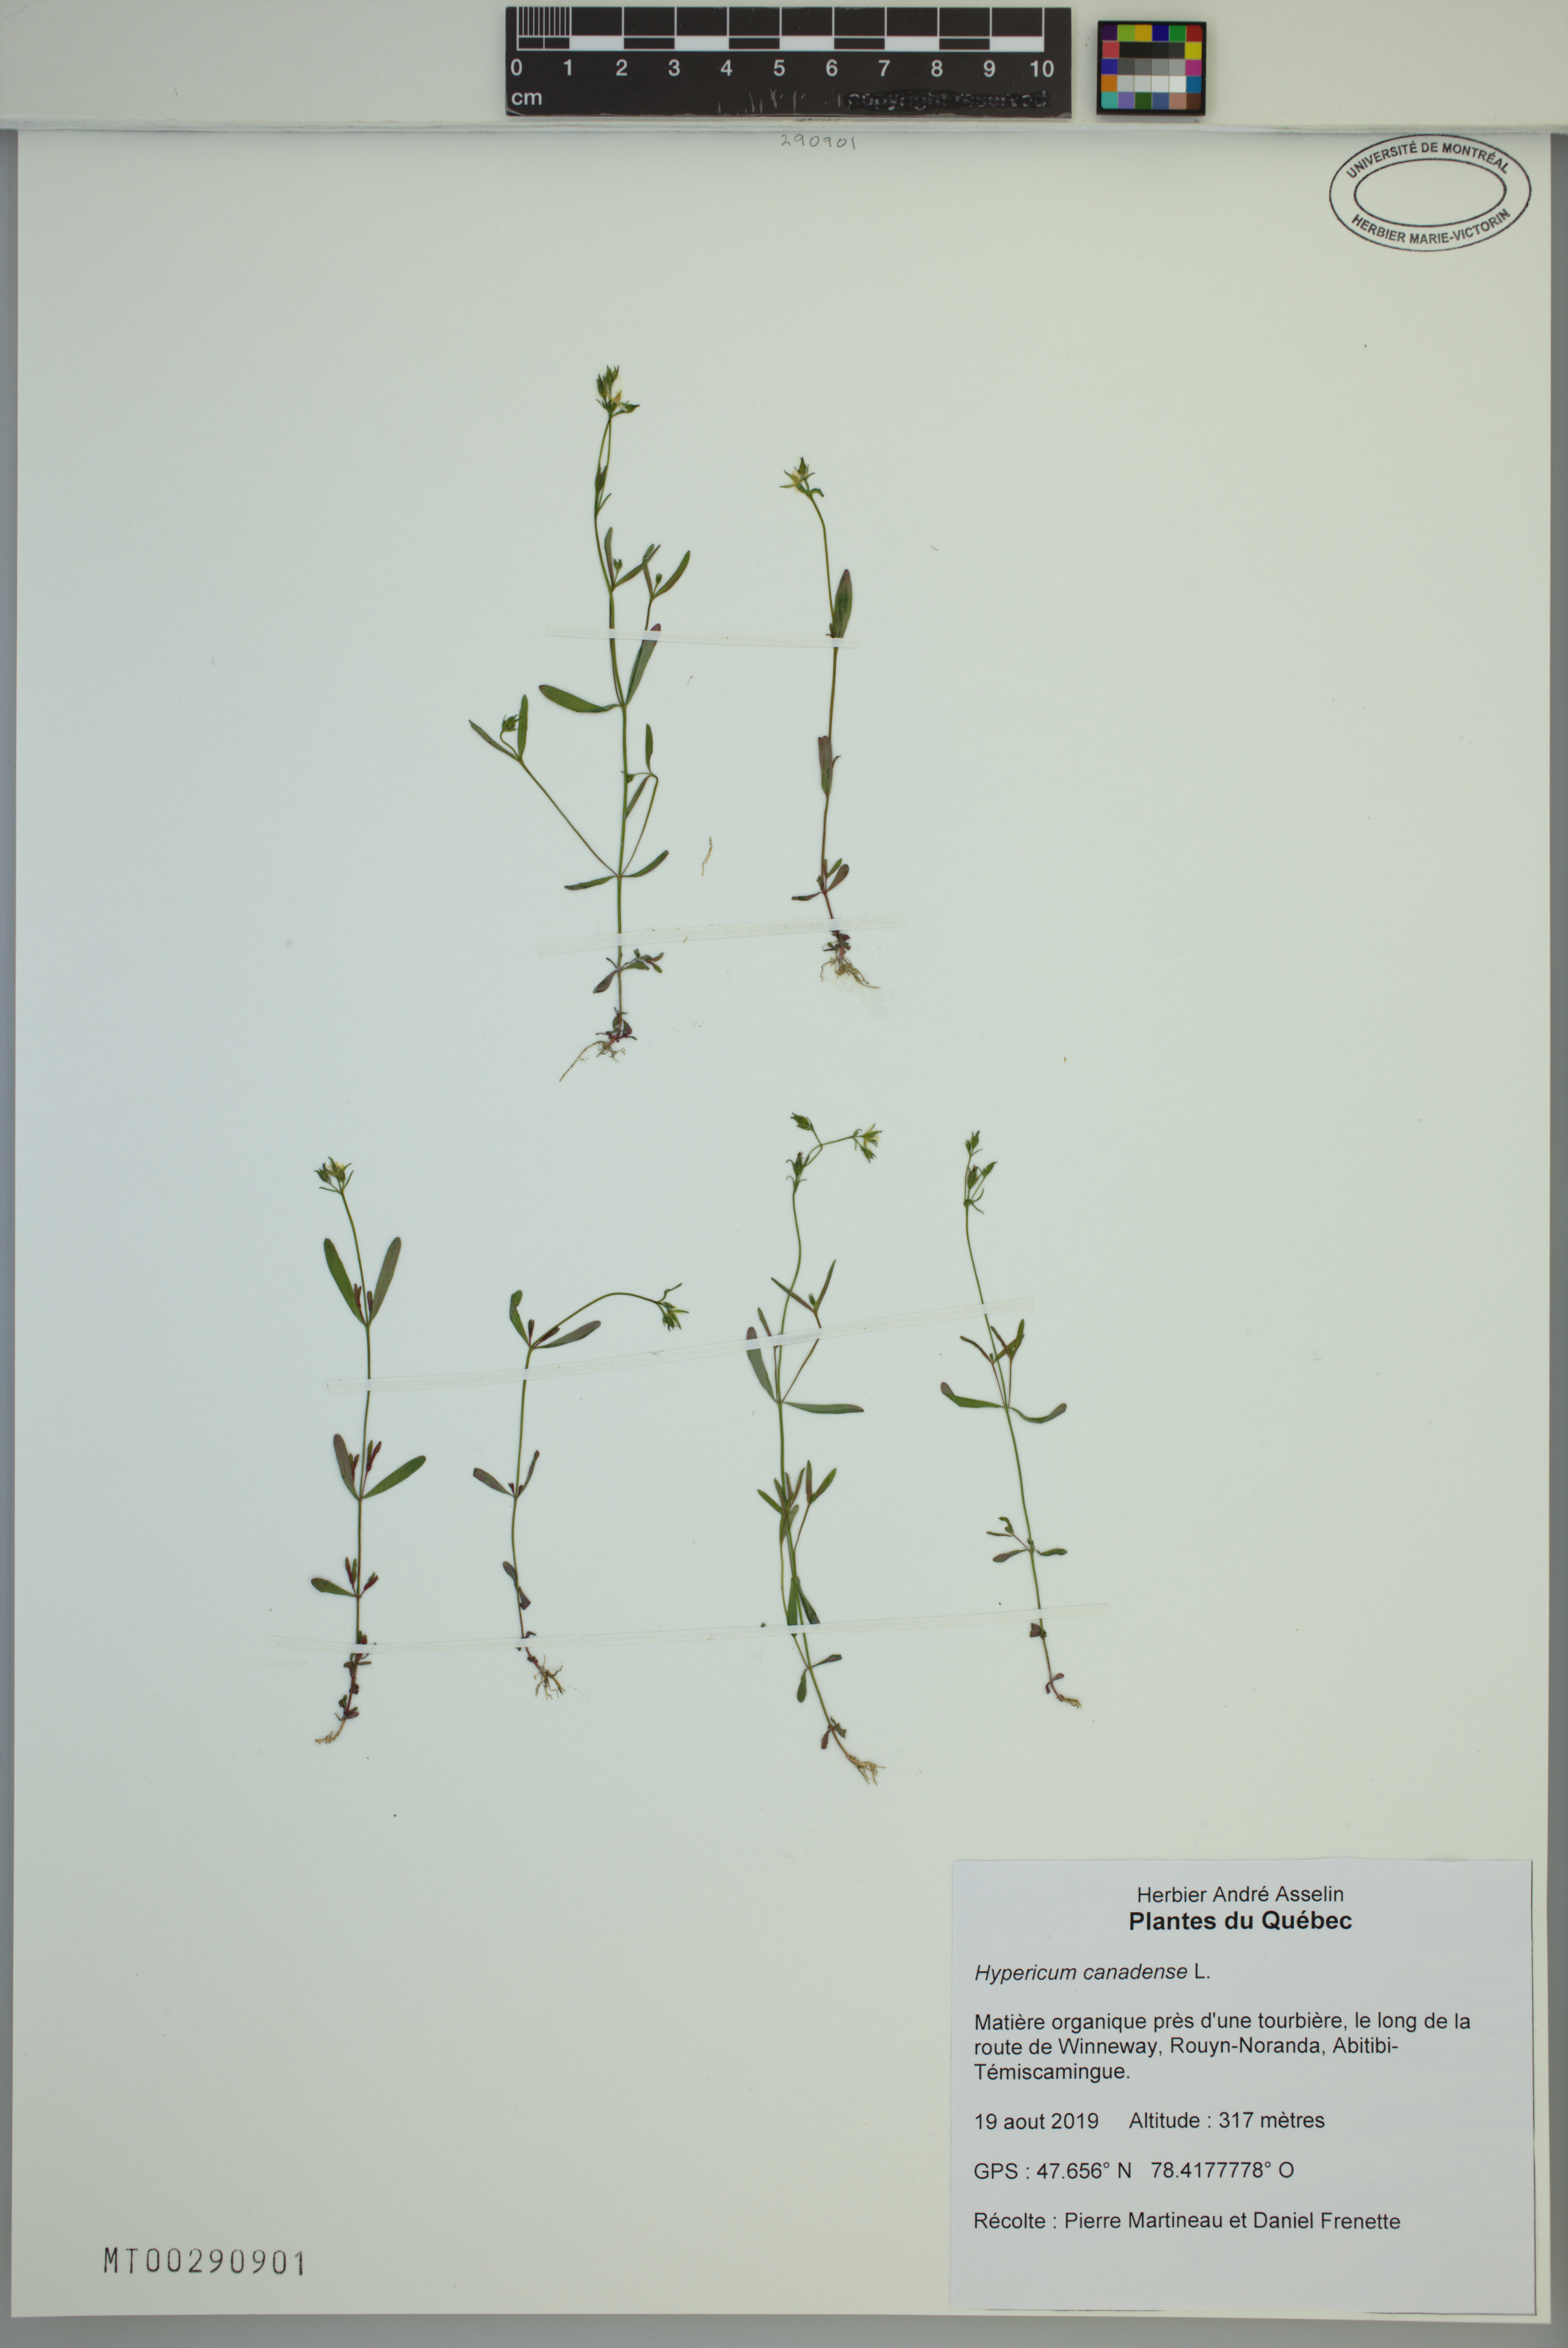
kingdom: Plantae
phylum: Tracheophyta
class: Magnoliopsida
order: Malpighiales
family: Hypericaceae
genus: Hypericum
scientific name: Hypericum canadense
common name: Irish st. john's-wort
